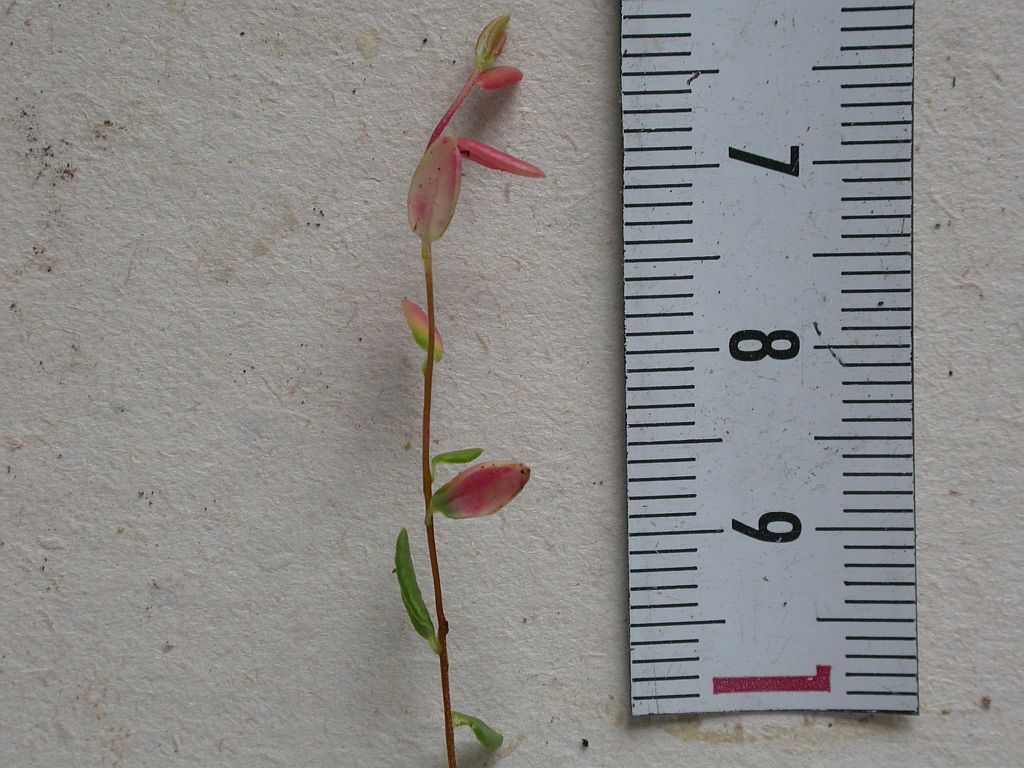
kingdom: Fungi
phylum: Basidiomycota
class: Exobasidiomycetes
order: Exobasidiales
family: Exobasidiaceae
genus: Exobasidium
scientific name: Exobasidium rostrupii
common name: tranebærblad-bøllesvamp
